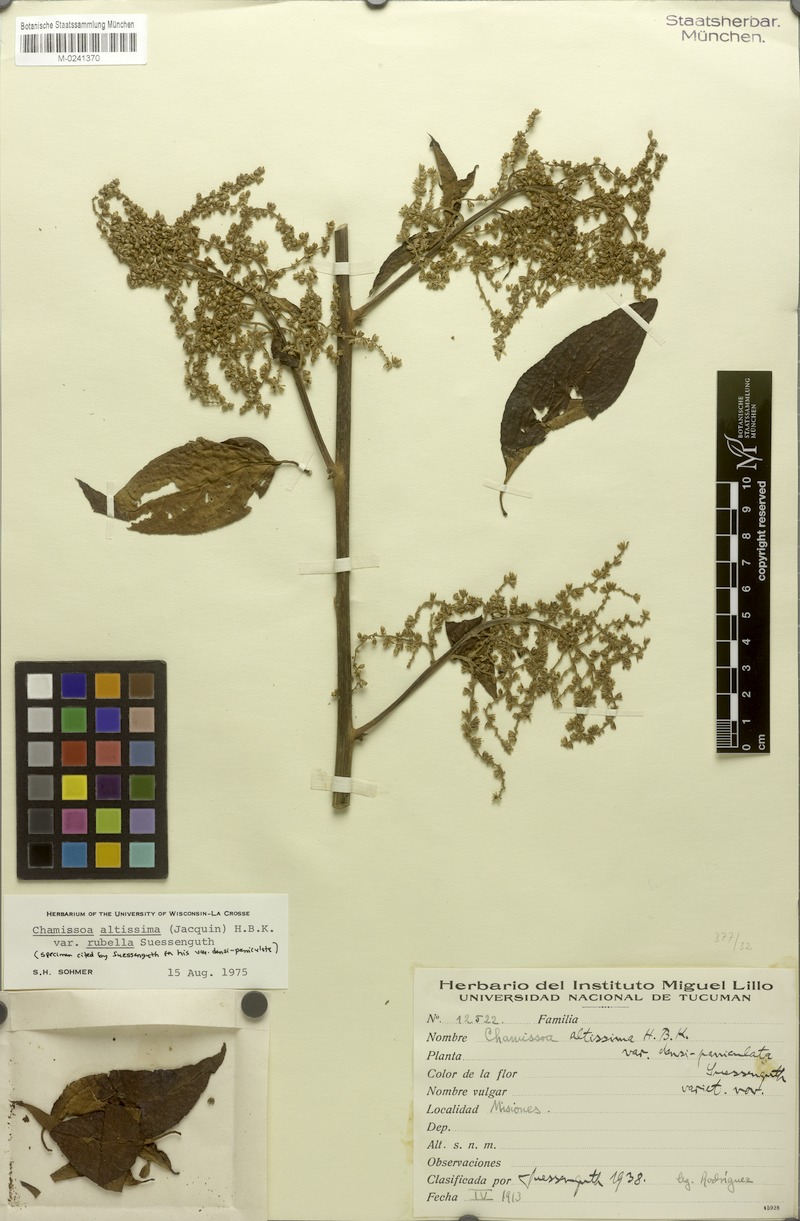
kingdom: Plantae
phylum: Tracheophyta
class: Magnoliopsida
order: Caryophyllales
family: Amaranthaceae
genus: Chamissoa
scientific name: Chamissoa altissima
